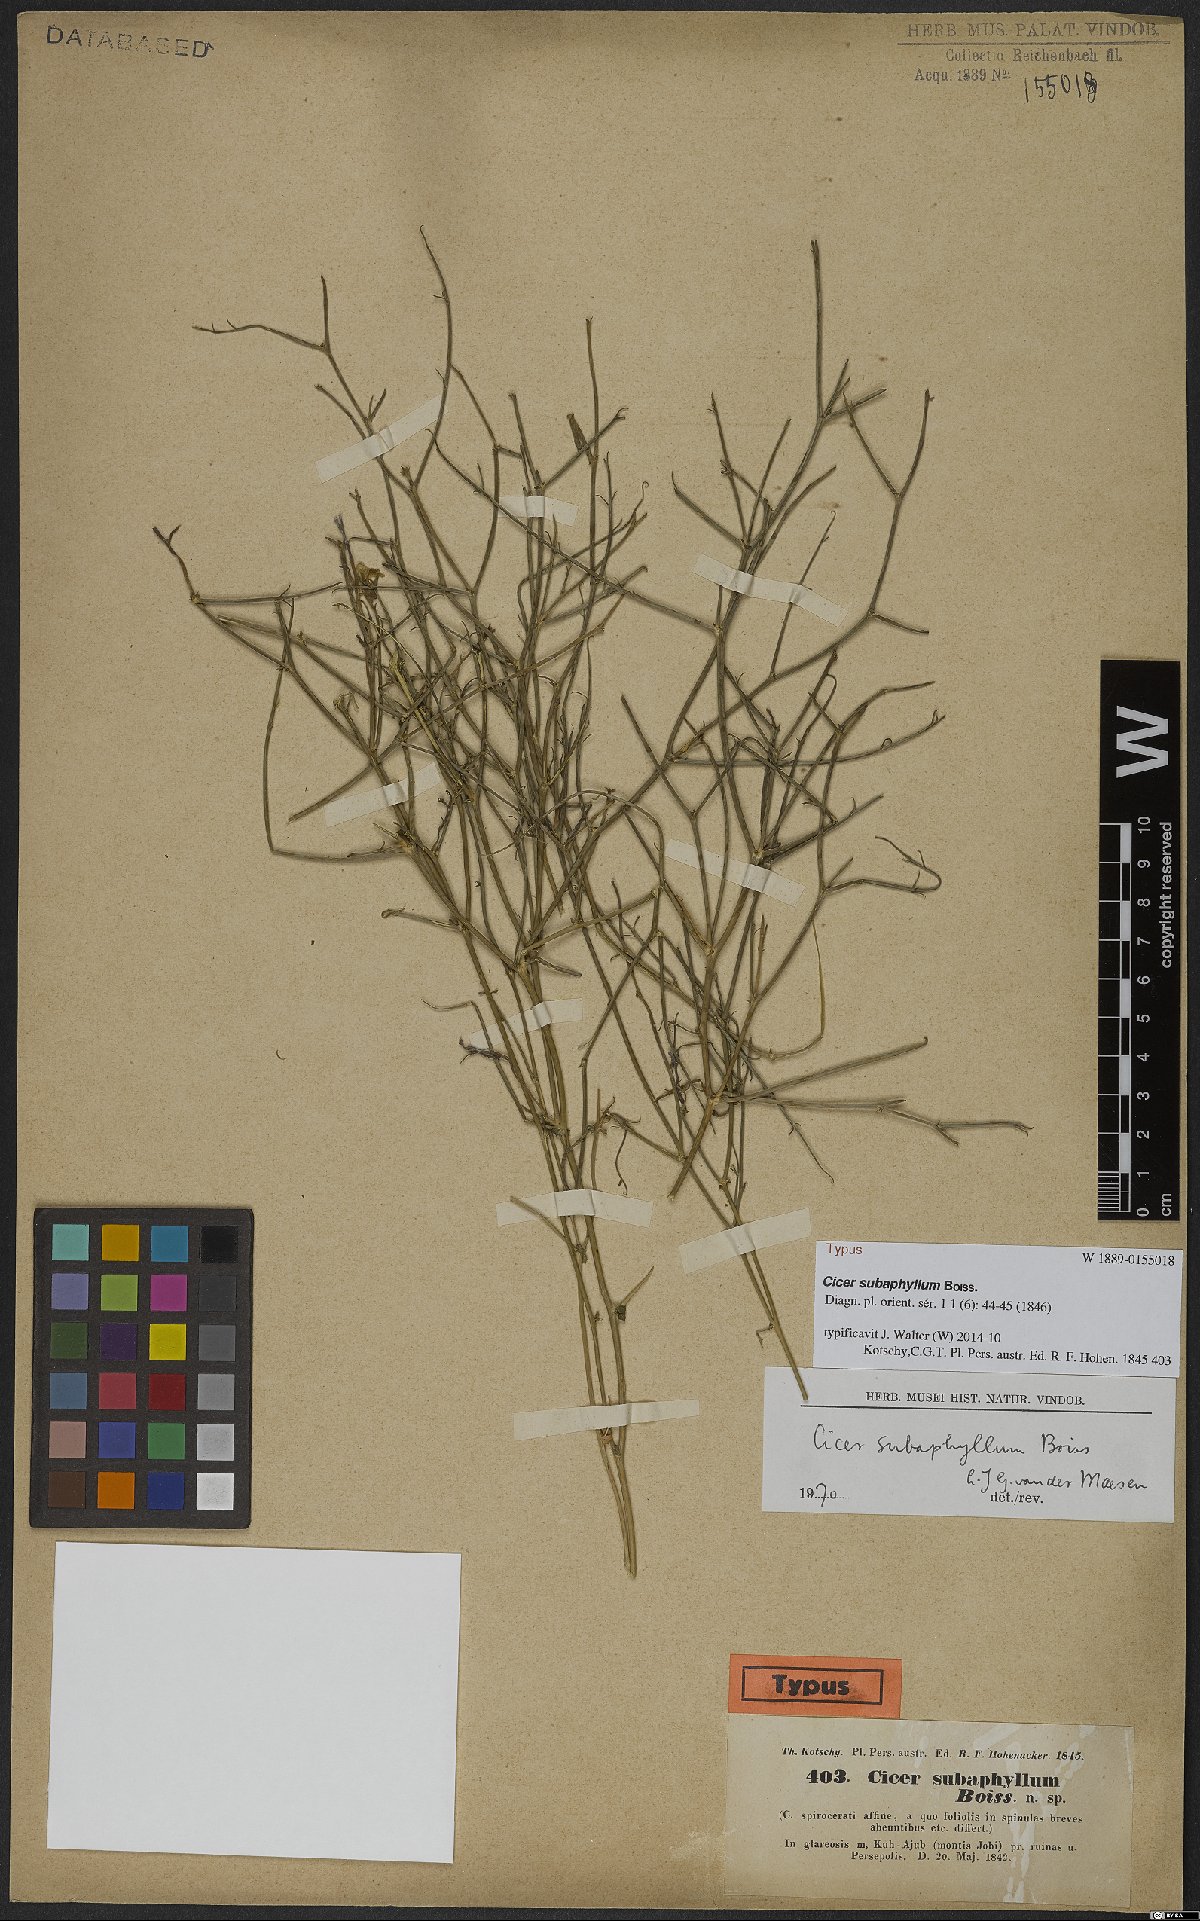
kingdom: Plantae
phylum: Tracheophyta
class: Magnoliopsida
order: Fabales
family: Fabaceae
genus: Cicer
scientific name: Cicer subaphyllum
